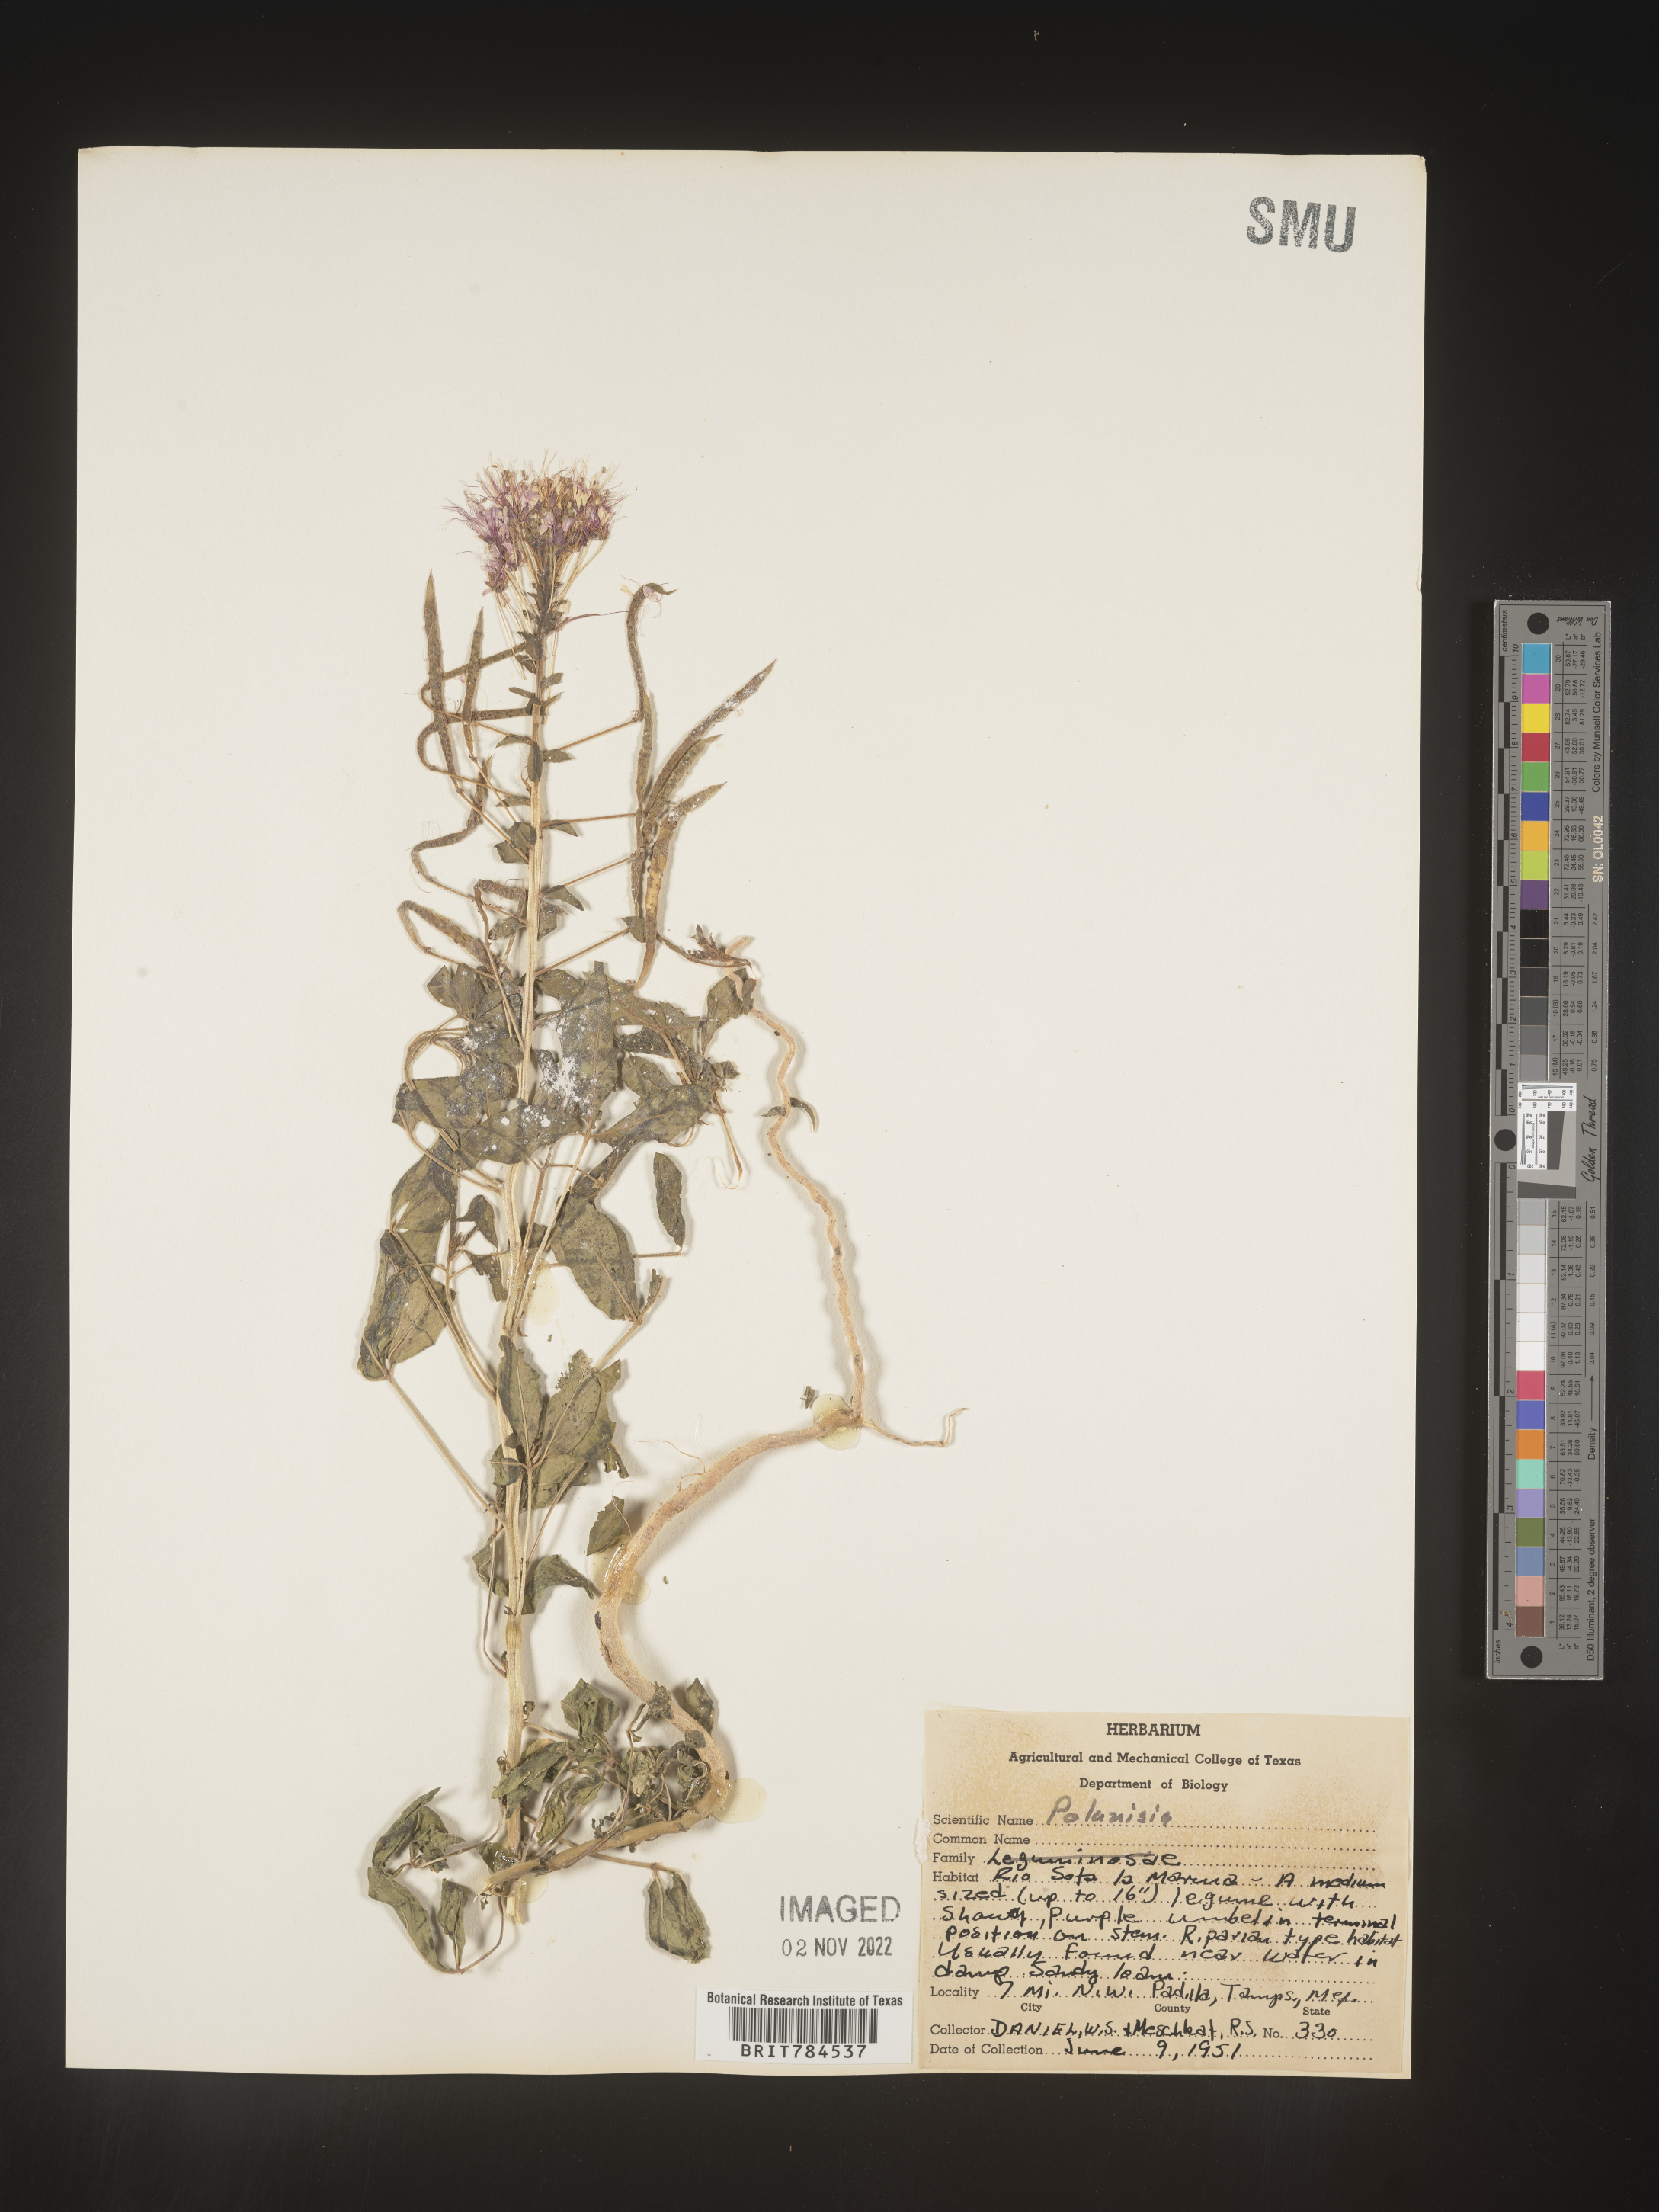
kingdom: Plantae
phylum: Tracheophyta
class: Magnoliopsida
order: Brassicales
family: Cleomaceae
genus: Polanisia
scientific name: Polanisia
